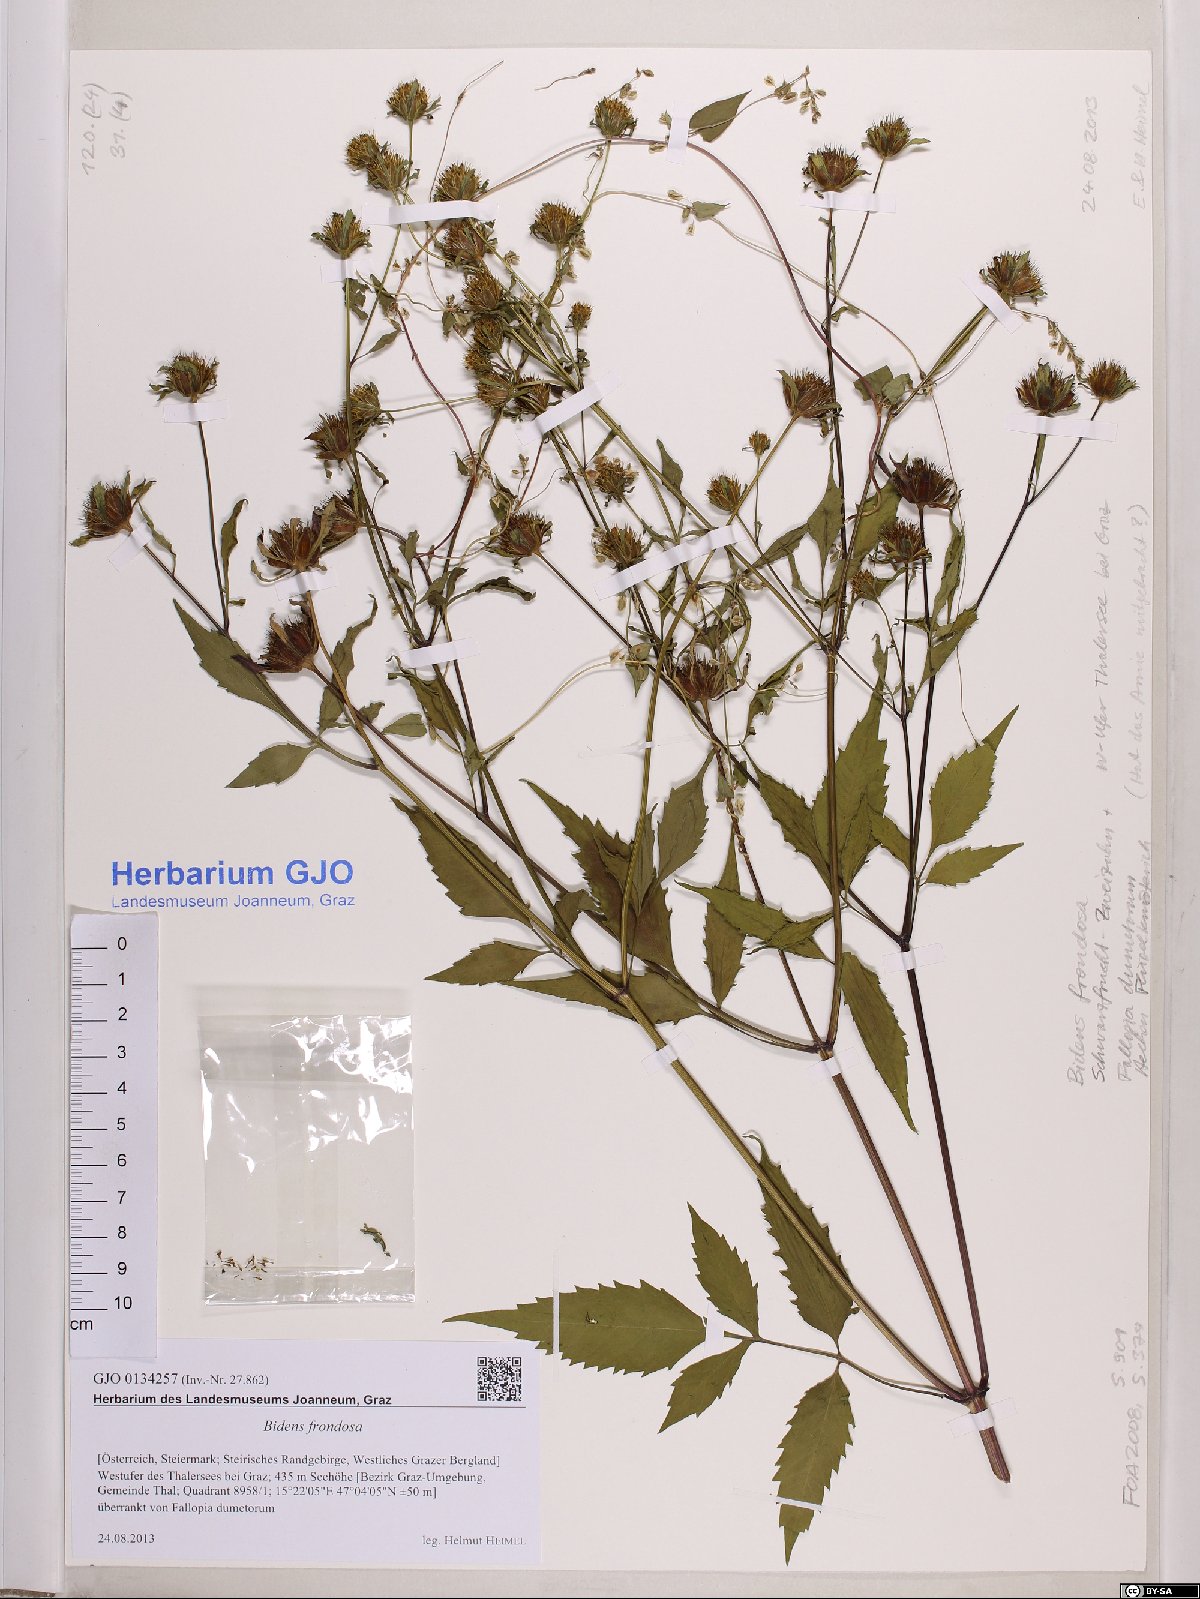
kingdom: Plantae
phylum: Tracheophyta
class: Magnoliopsida
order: Asterales
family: Asteraceae
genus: Bidens
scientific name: Bidens frondosa
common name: Beggarticks
